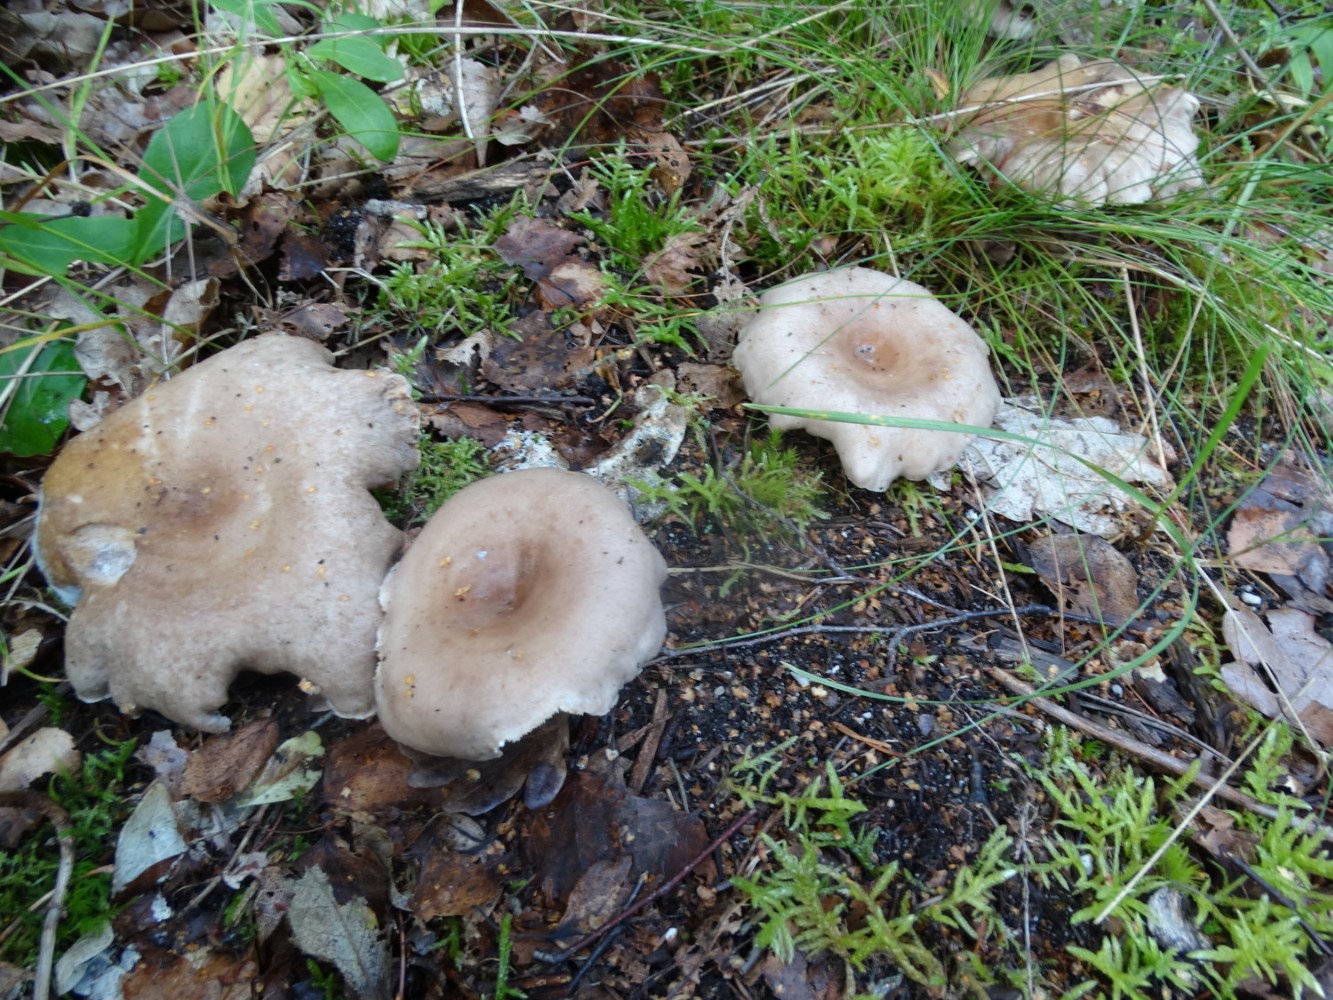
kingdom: Fungi
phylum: Basidiomycota
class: Agaricomycetes
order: Russulales
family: Russulaceae
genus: Lactarius
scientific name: Lactarius vietus
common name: violetgrå mælkehat
